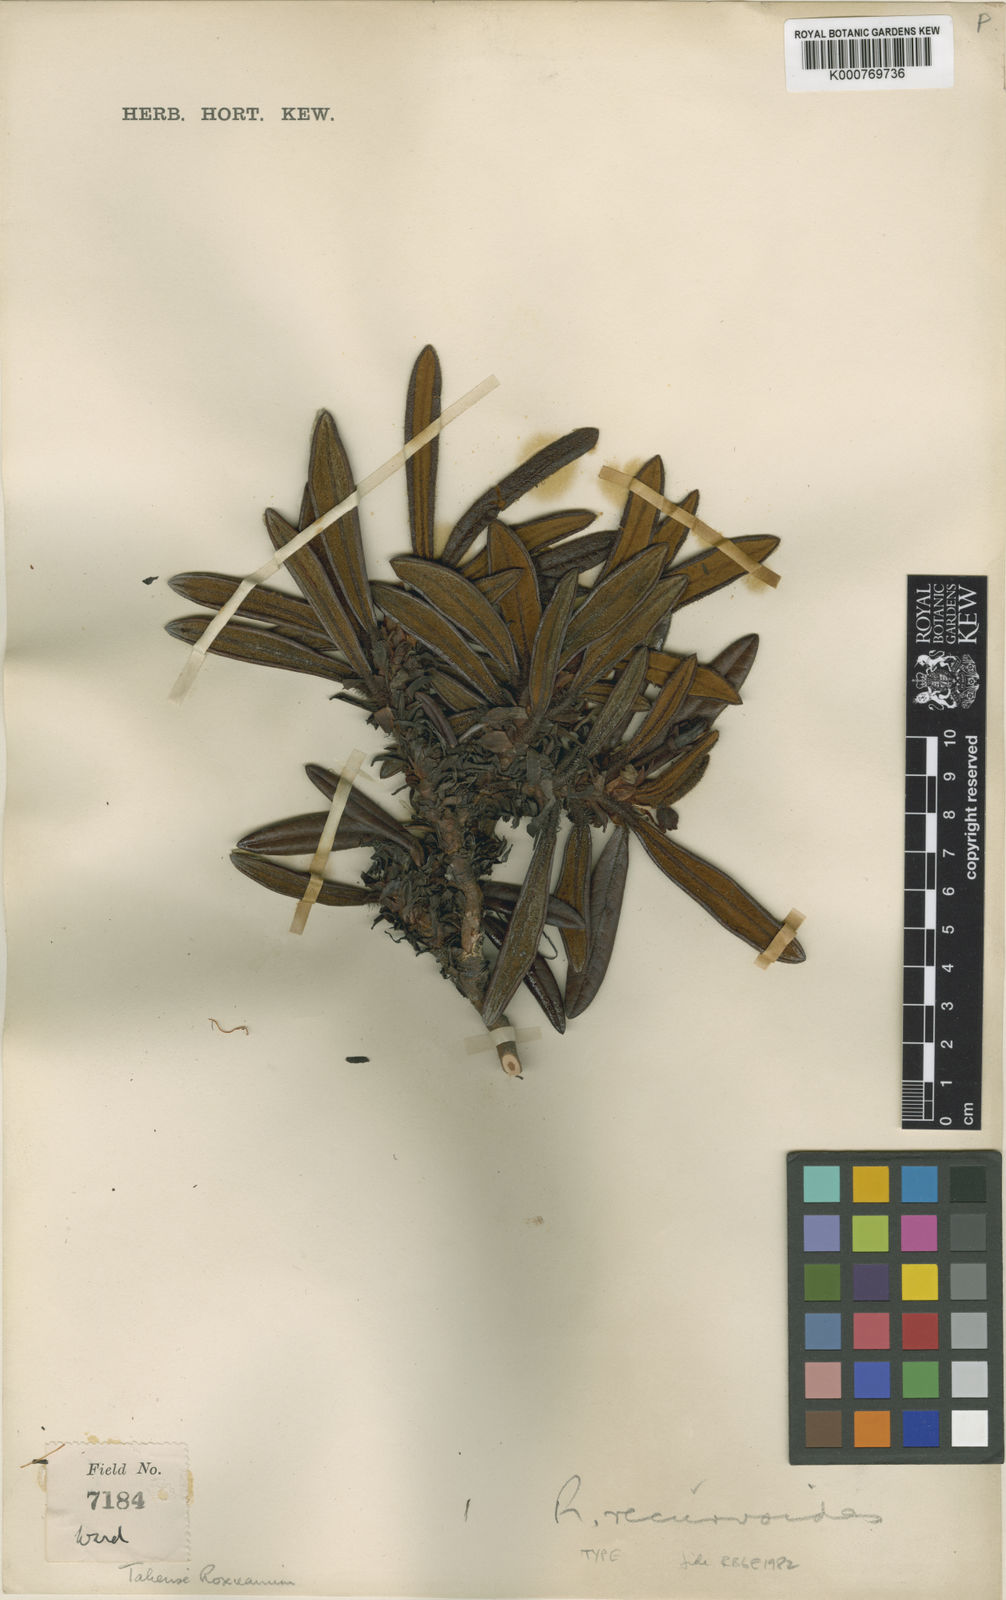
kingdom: Plantae
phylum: Tracheophyta
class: Magnoliopsida
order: Ericales
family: Ericaceae
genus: Rhododendron
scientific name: Rhododendron recurvoides
